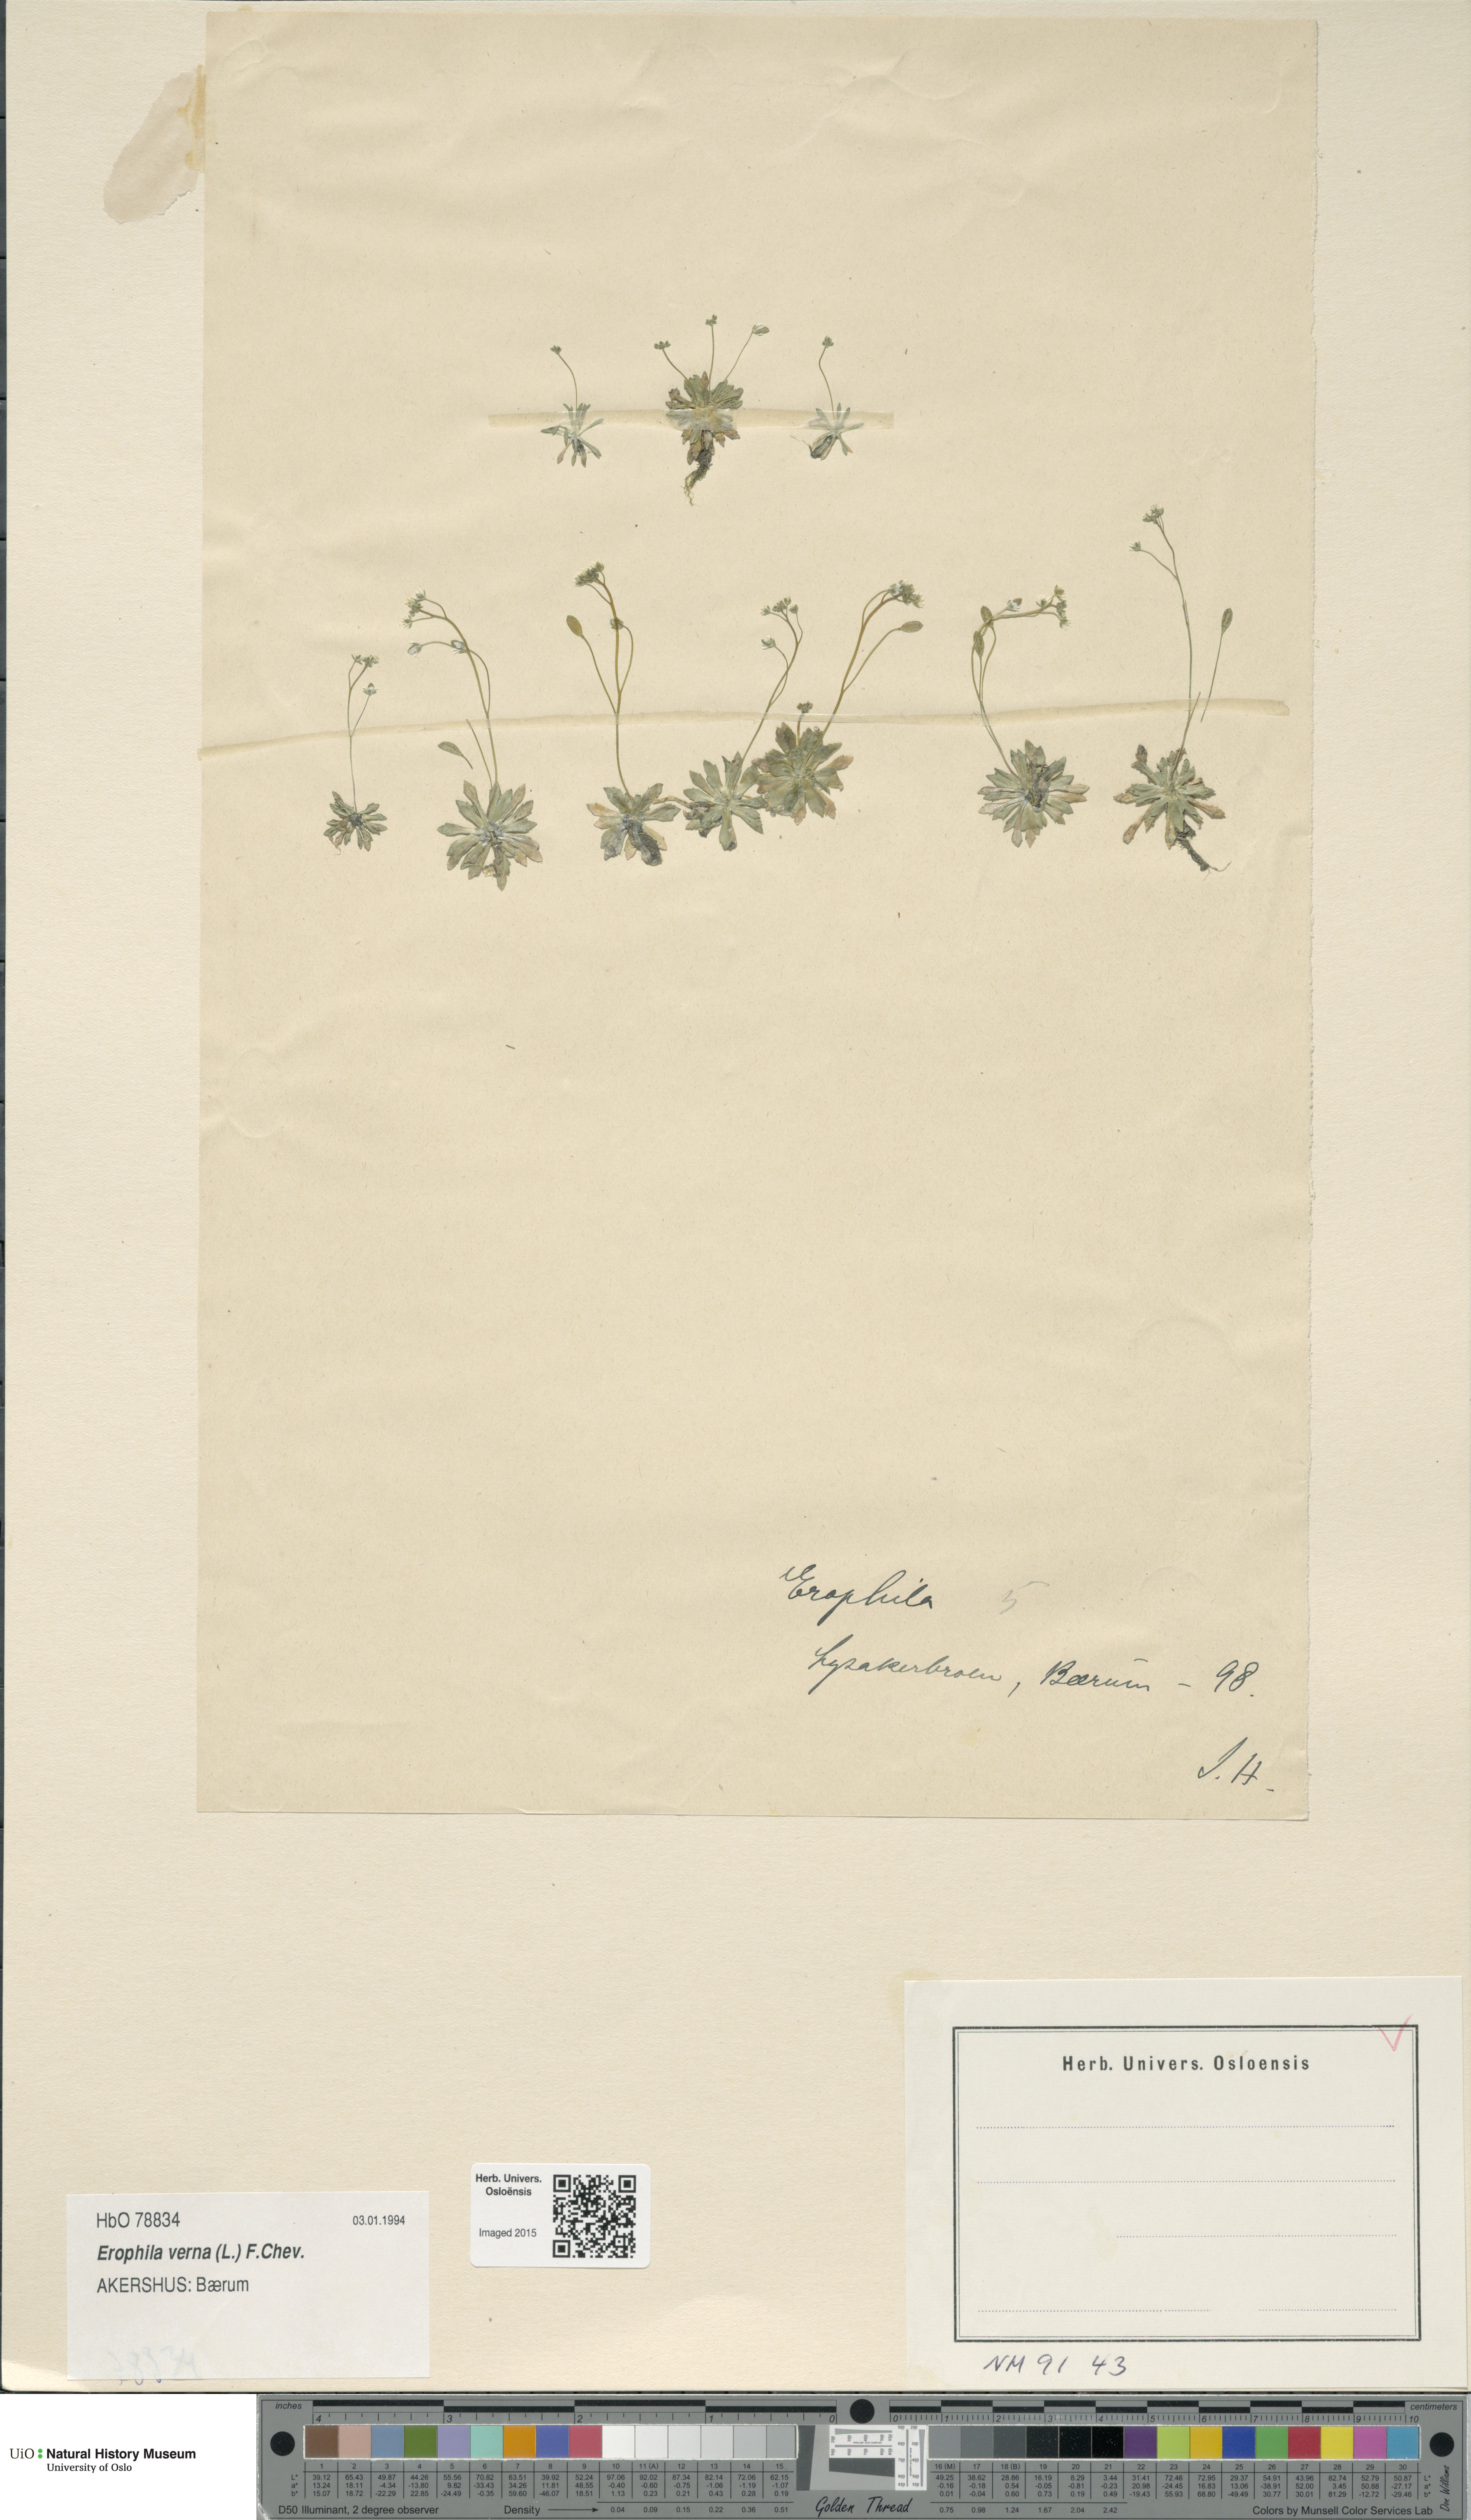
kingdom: Plantae
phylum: Tracheophyta
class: Magnoliopsida
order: Brassicales
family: Brassicaceae
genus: Draba
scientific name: Draba verna
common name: Spring draba
